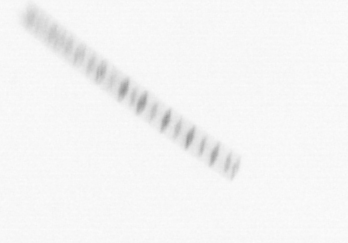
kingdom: Chromista
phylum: Ochrophyta
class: Bacillariophyceae
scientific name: Bacillariophyceae
